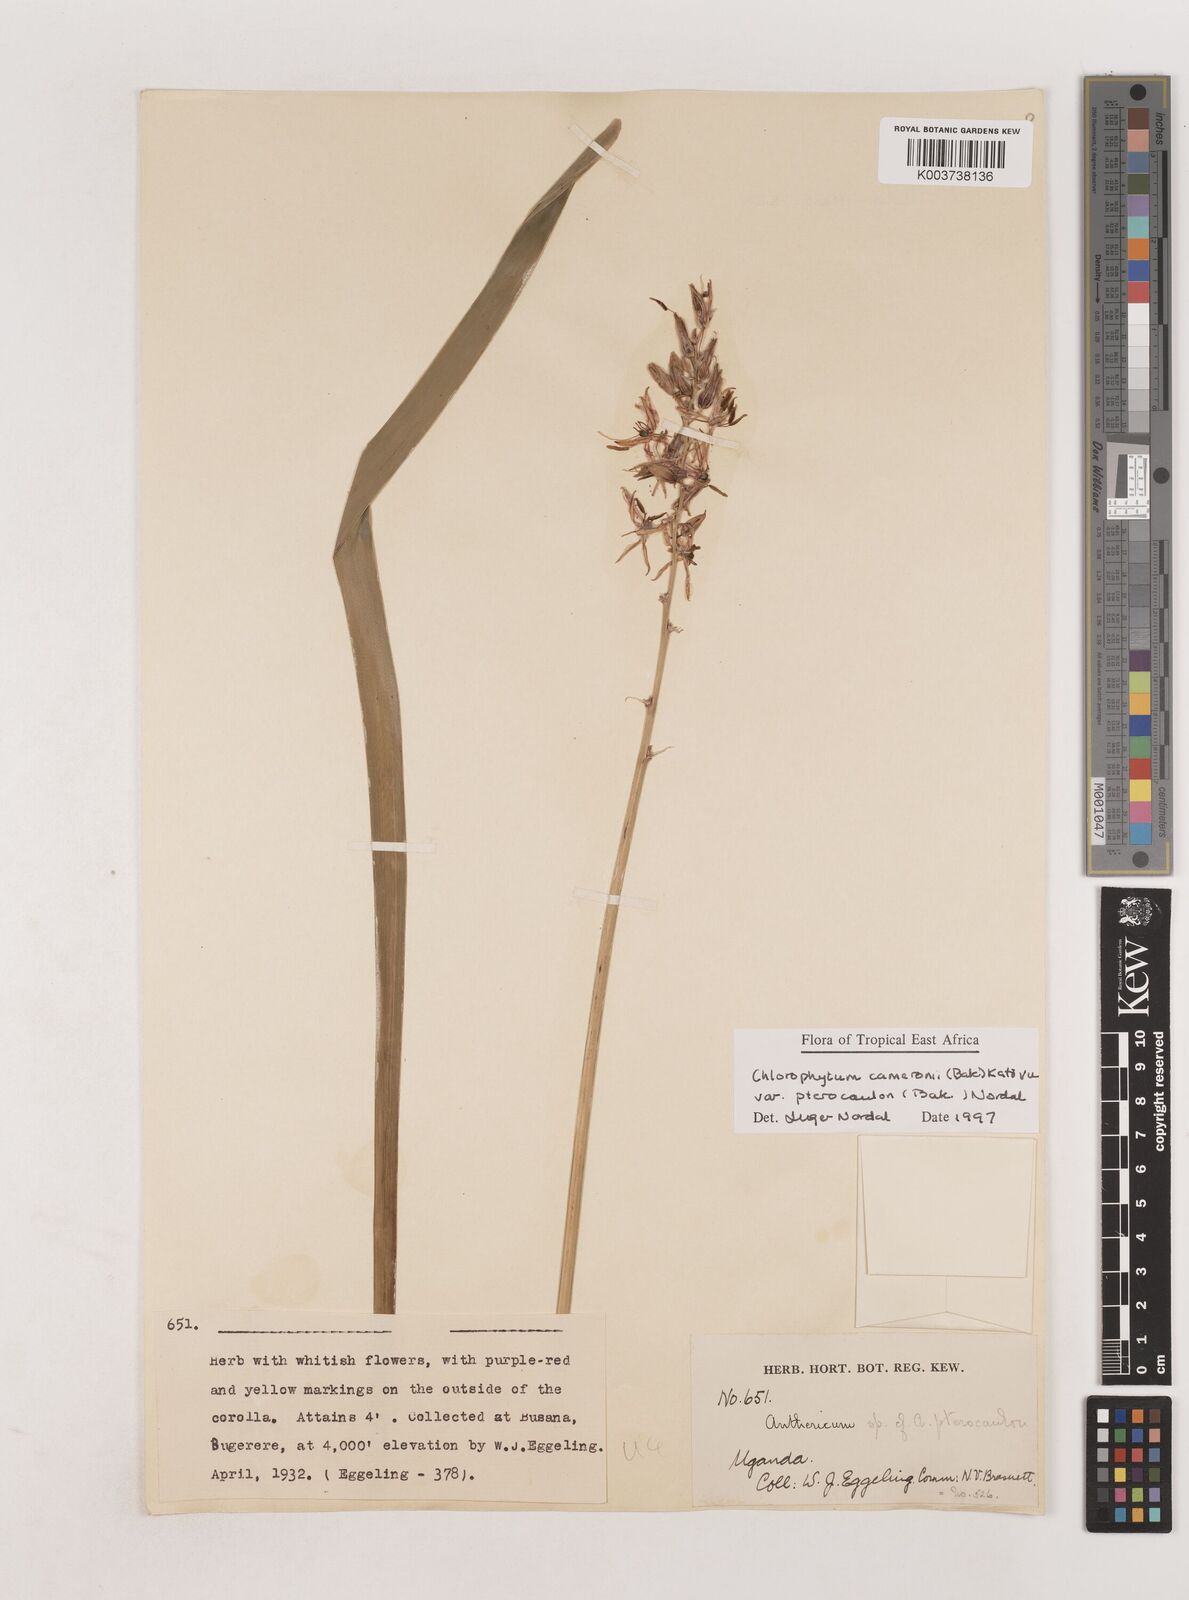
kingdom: Plantae
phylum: Tracheophyta
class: Liliopsida
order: Asparagales
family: Asparagaceae
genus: Chlorophytum
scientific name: Chlorophytum cameronii
